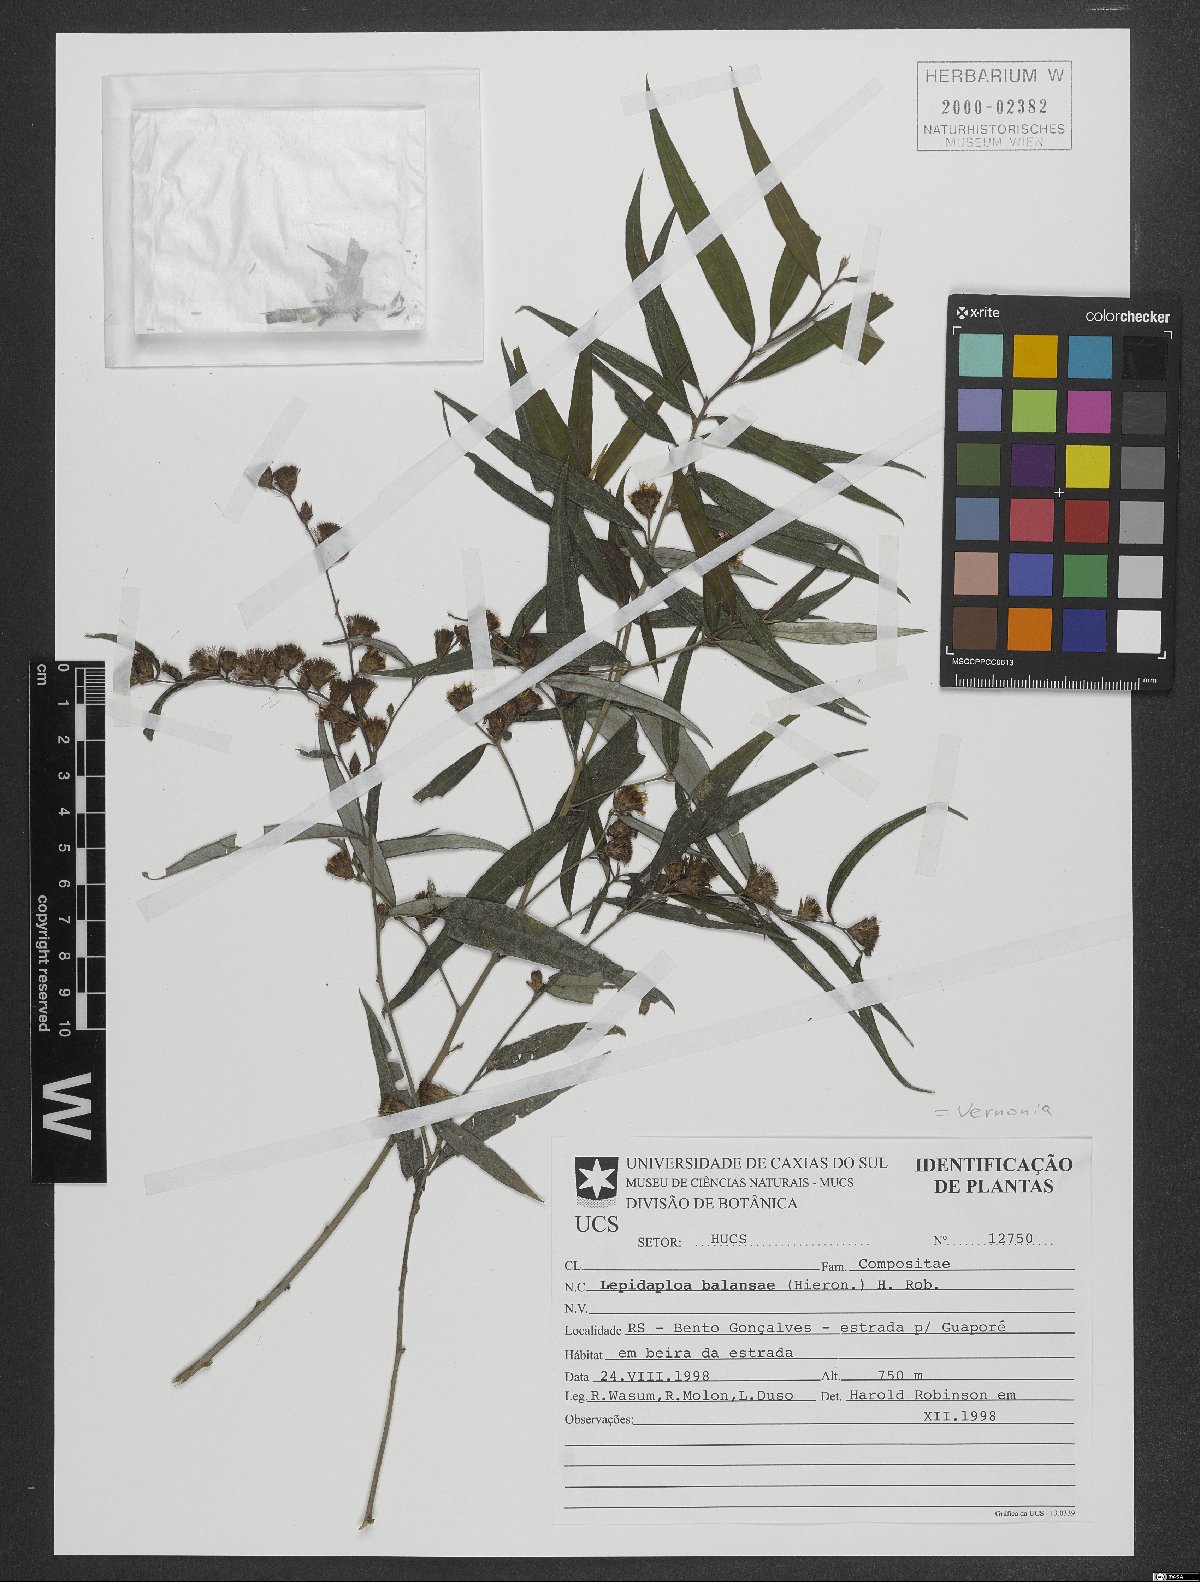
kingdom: Plantae
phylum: Tracheophyta
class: Magnoliopsida
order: Asterales
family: Asteraceae
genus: Lepidaploa
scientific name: Lepidaploa balansae
